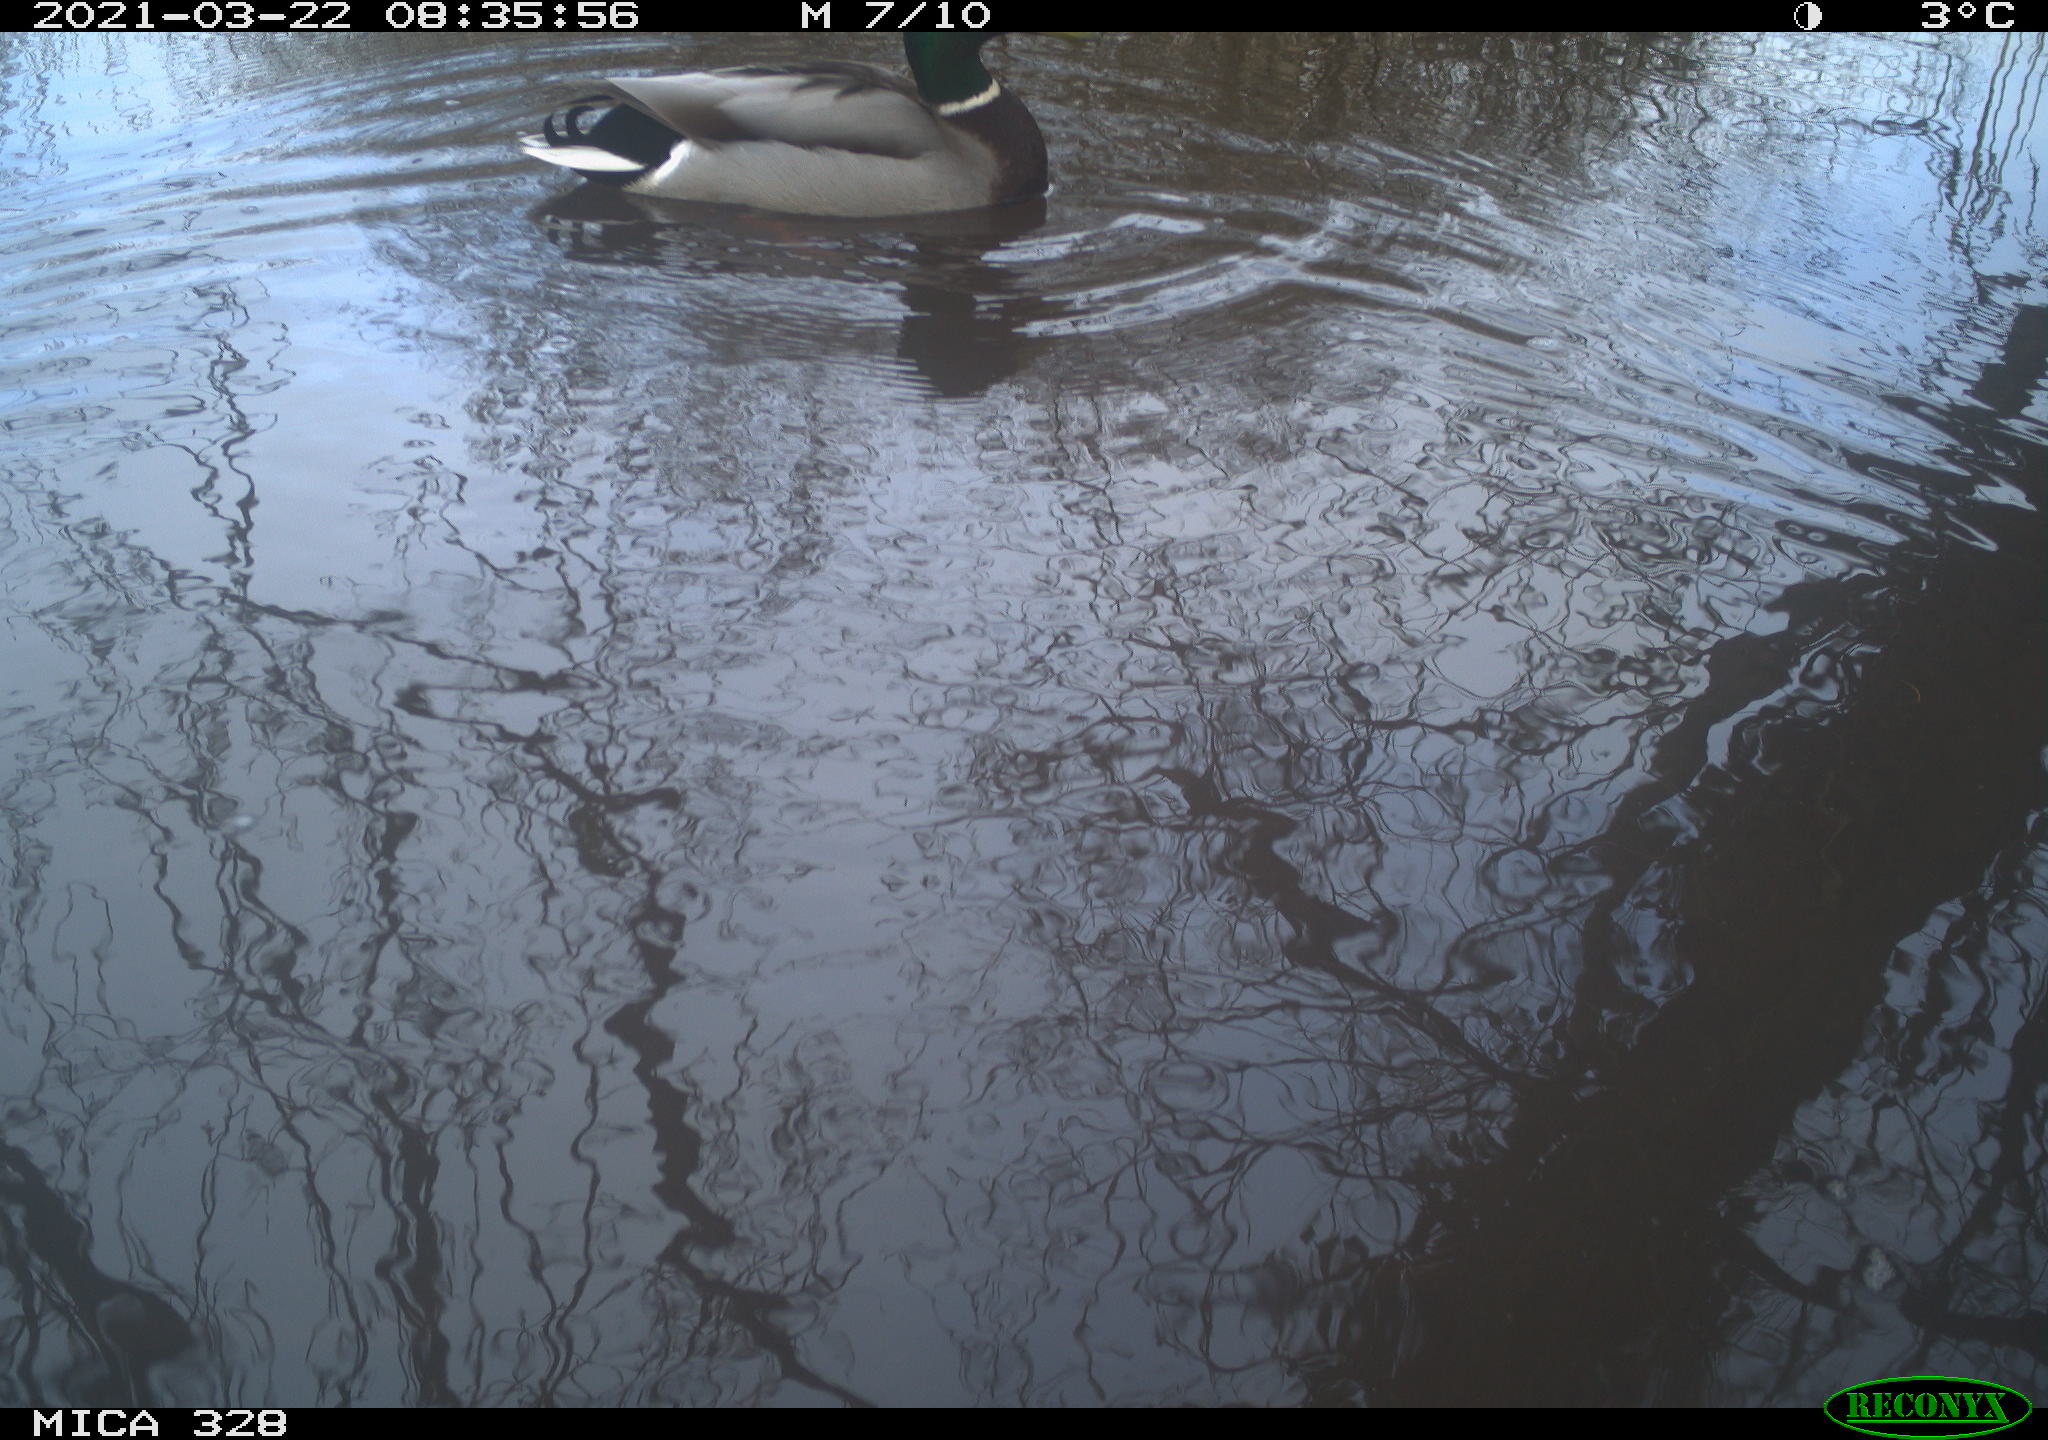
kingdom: Animalia
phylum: Chordata
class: Aves
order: Anseriformes
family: Anatidae
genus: Anas
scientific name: Anas platyrhynchos
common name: Mallard
